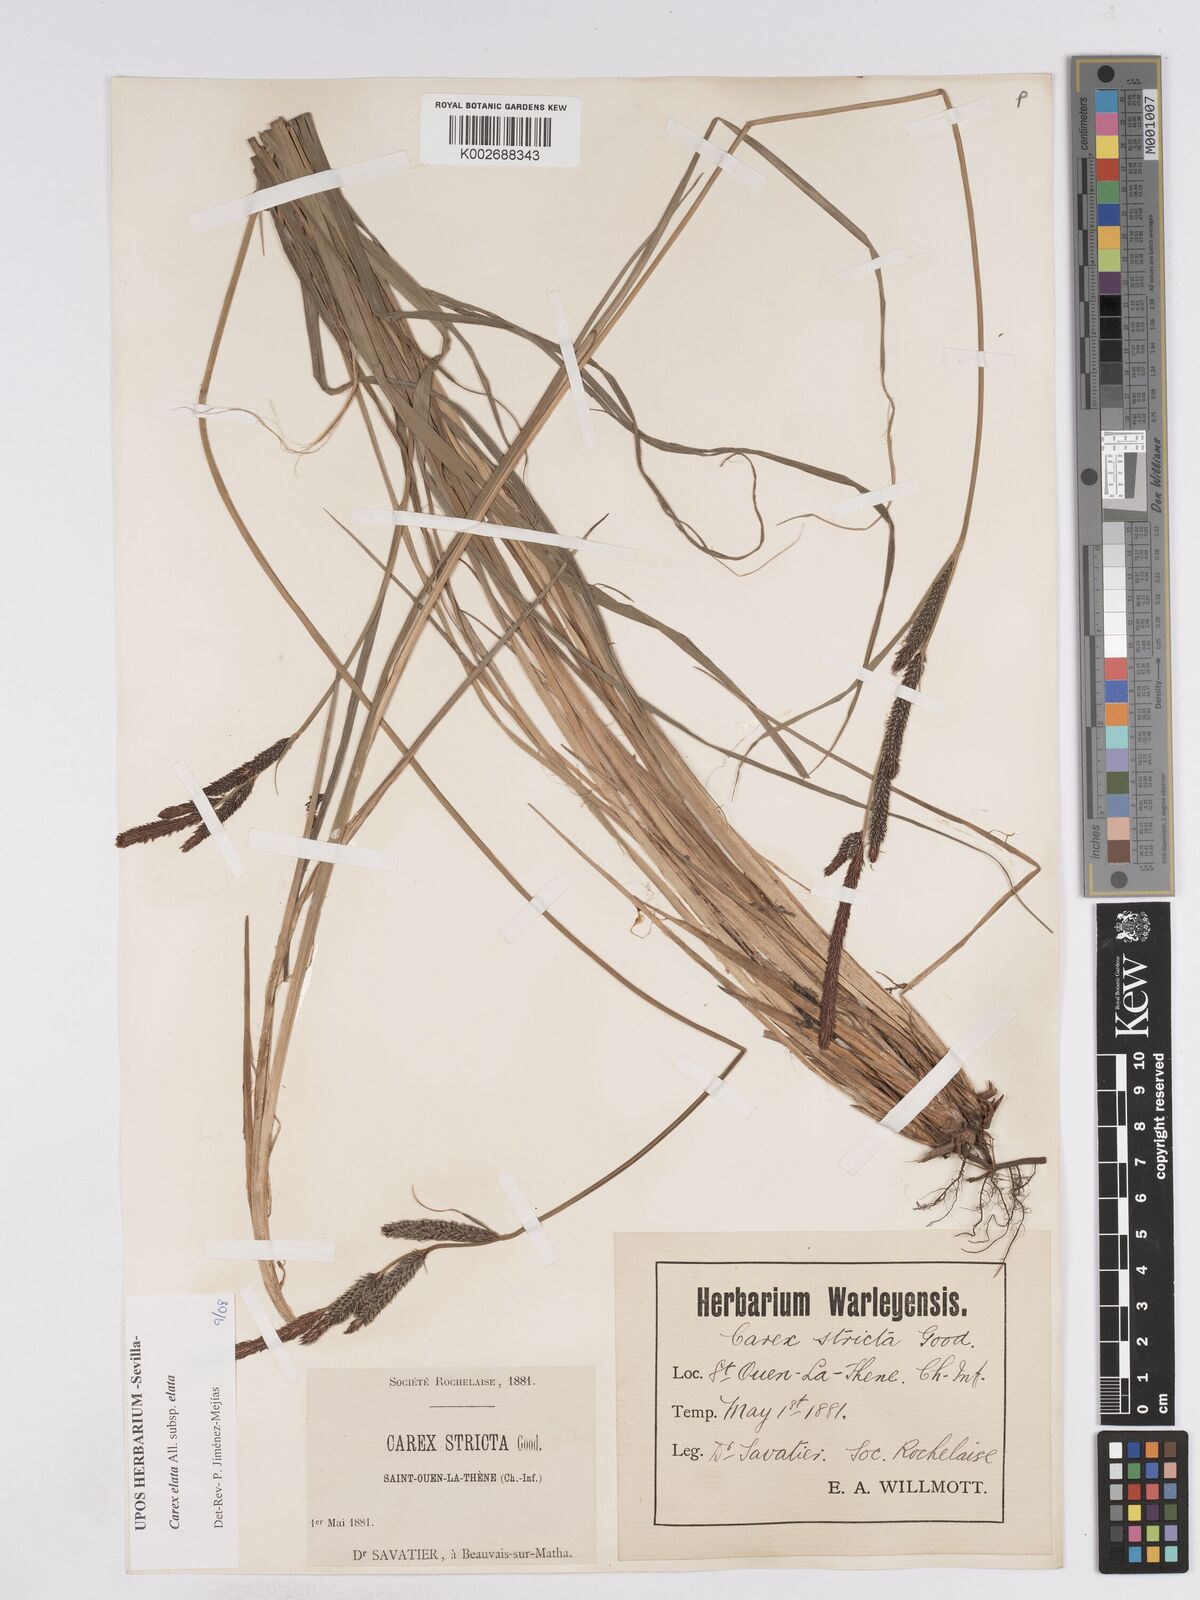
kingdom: Plantae
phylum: Tracheophyta
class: Liliopsida
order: Poales
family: Cyperaceae
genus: Carex
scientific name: Carex elata
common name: Tufted sedge
